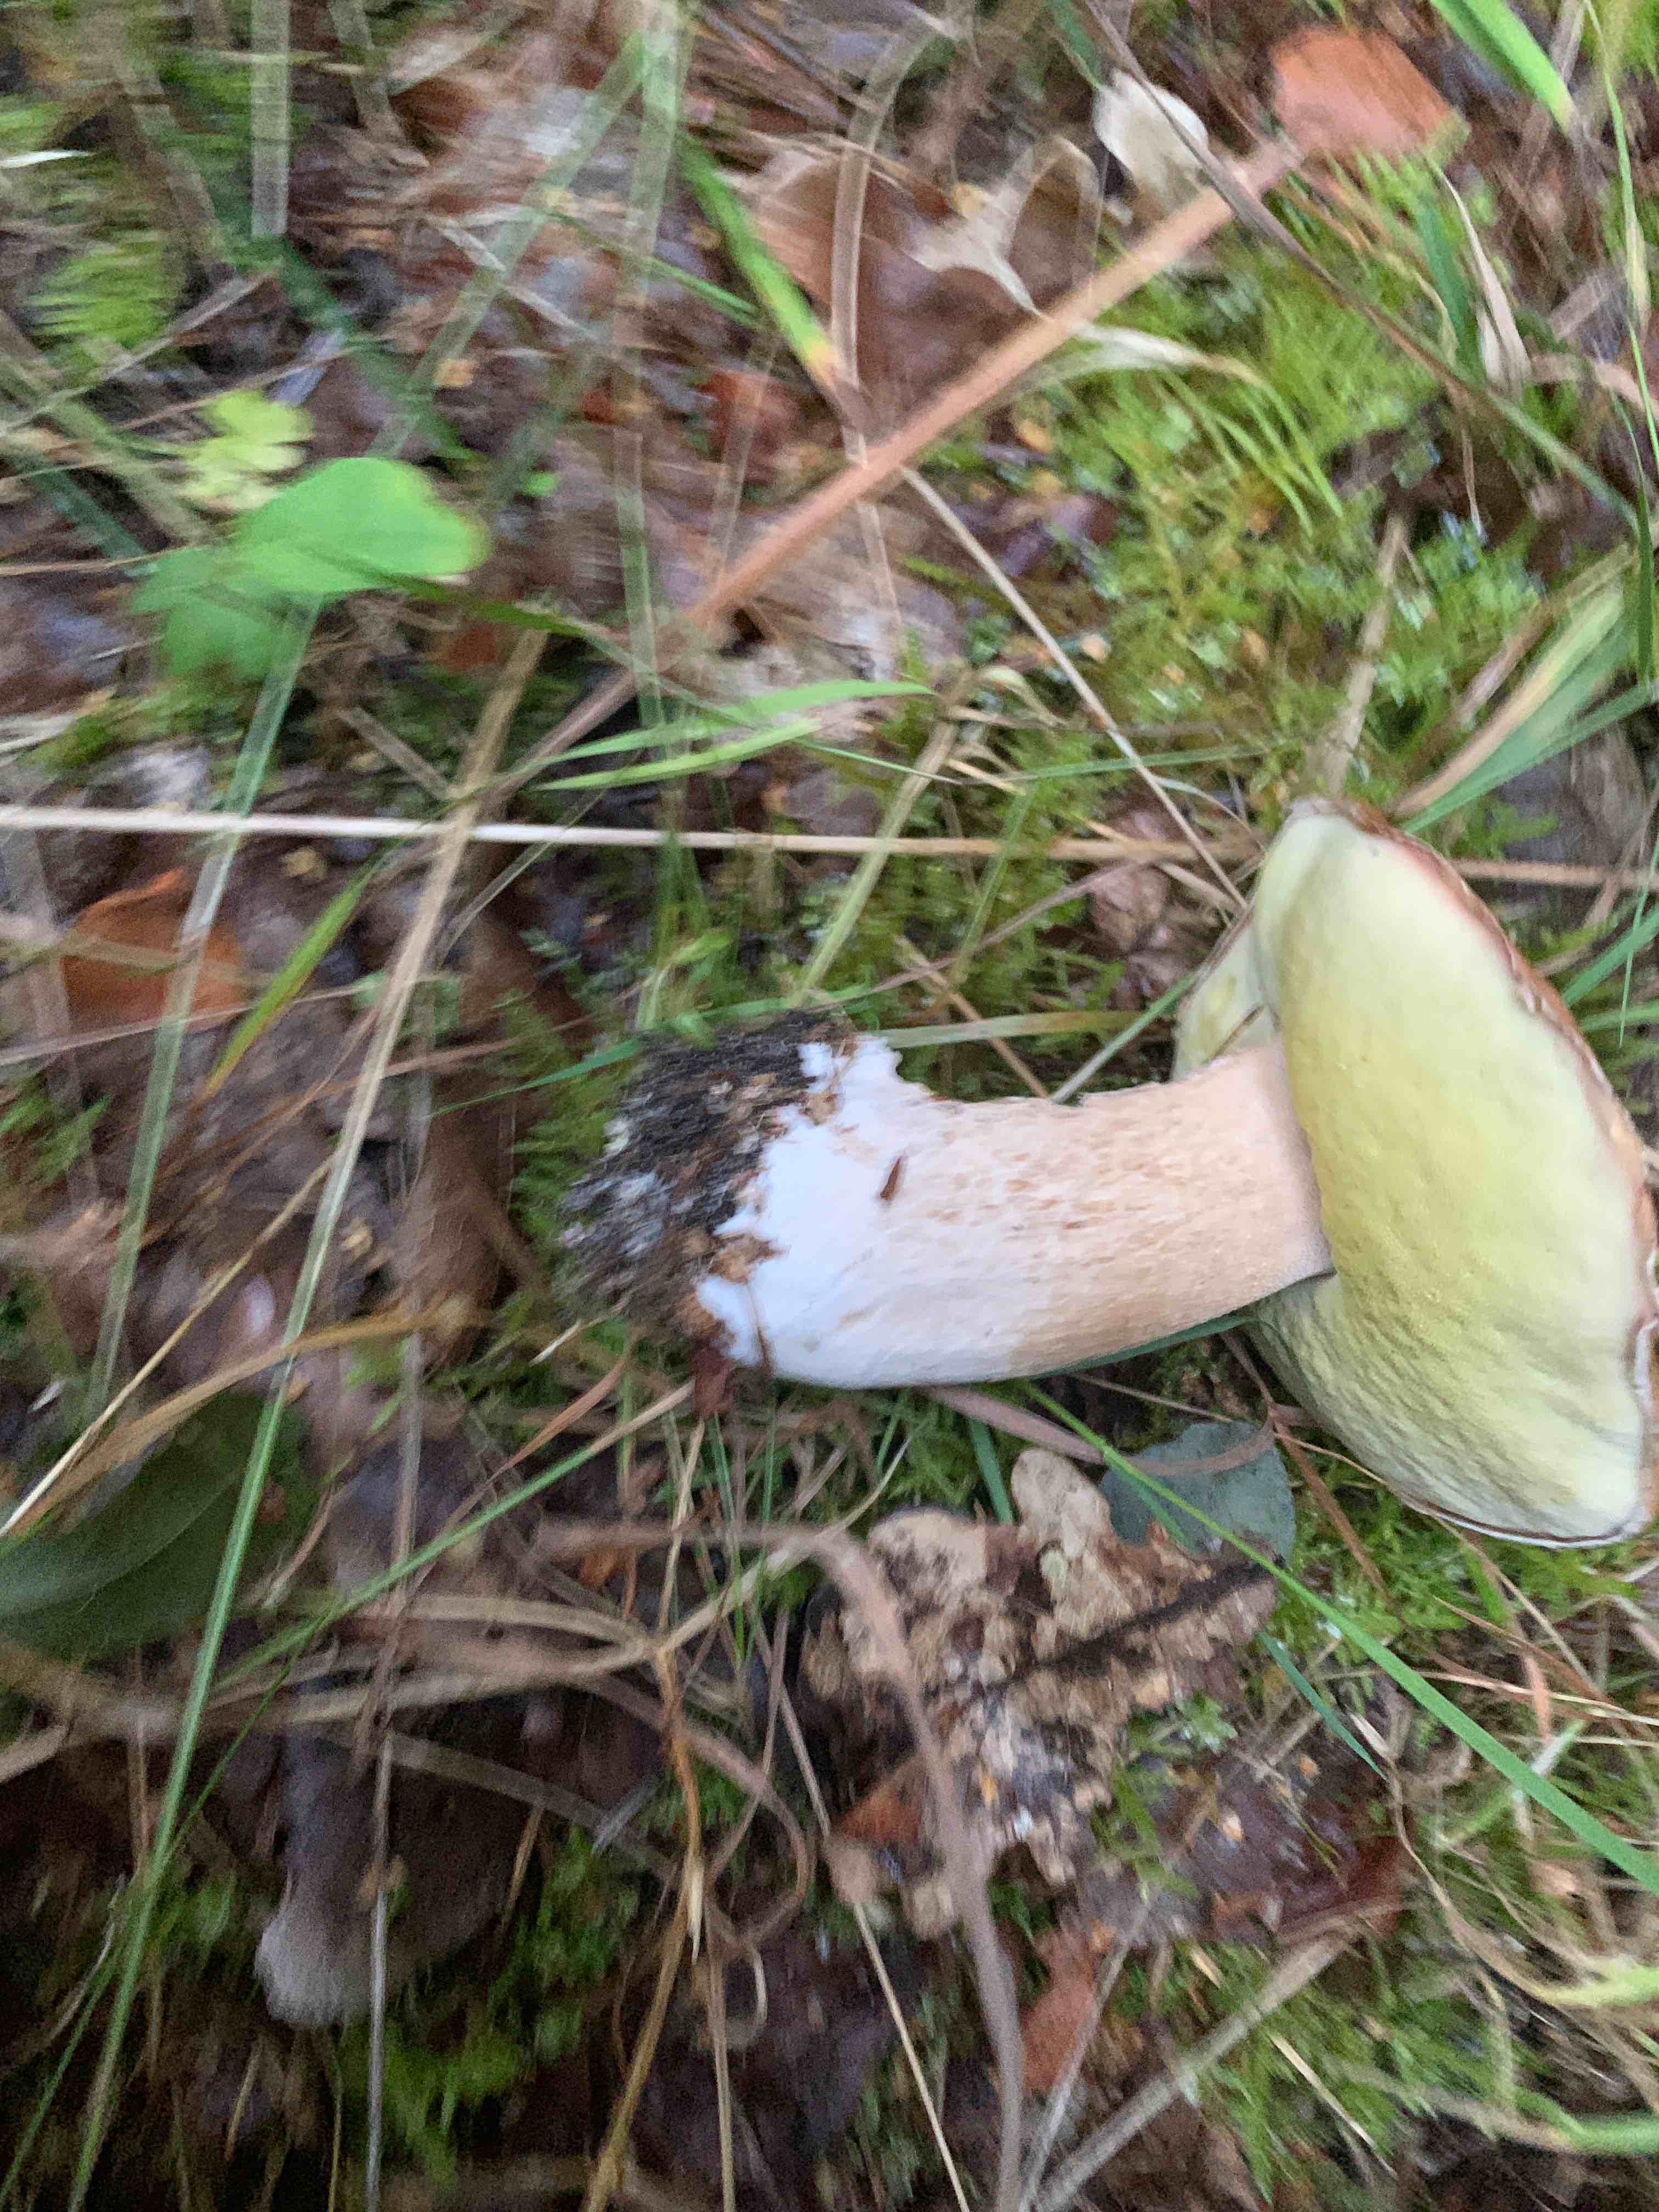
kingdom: Fungi
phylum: Basidiomycota
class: Agaricomycetes
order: Boletales
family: Boletaceae
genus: Boletus
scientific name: Boletus edulis
